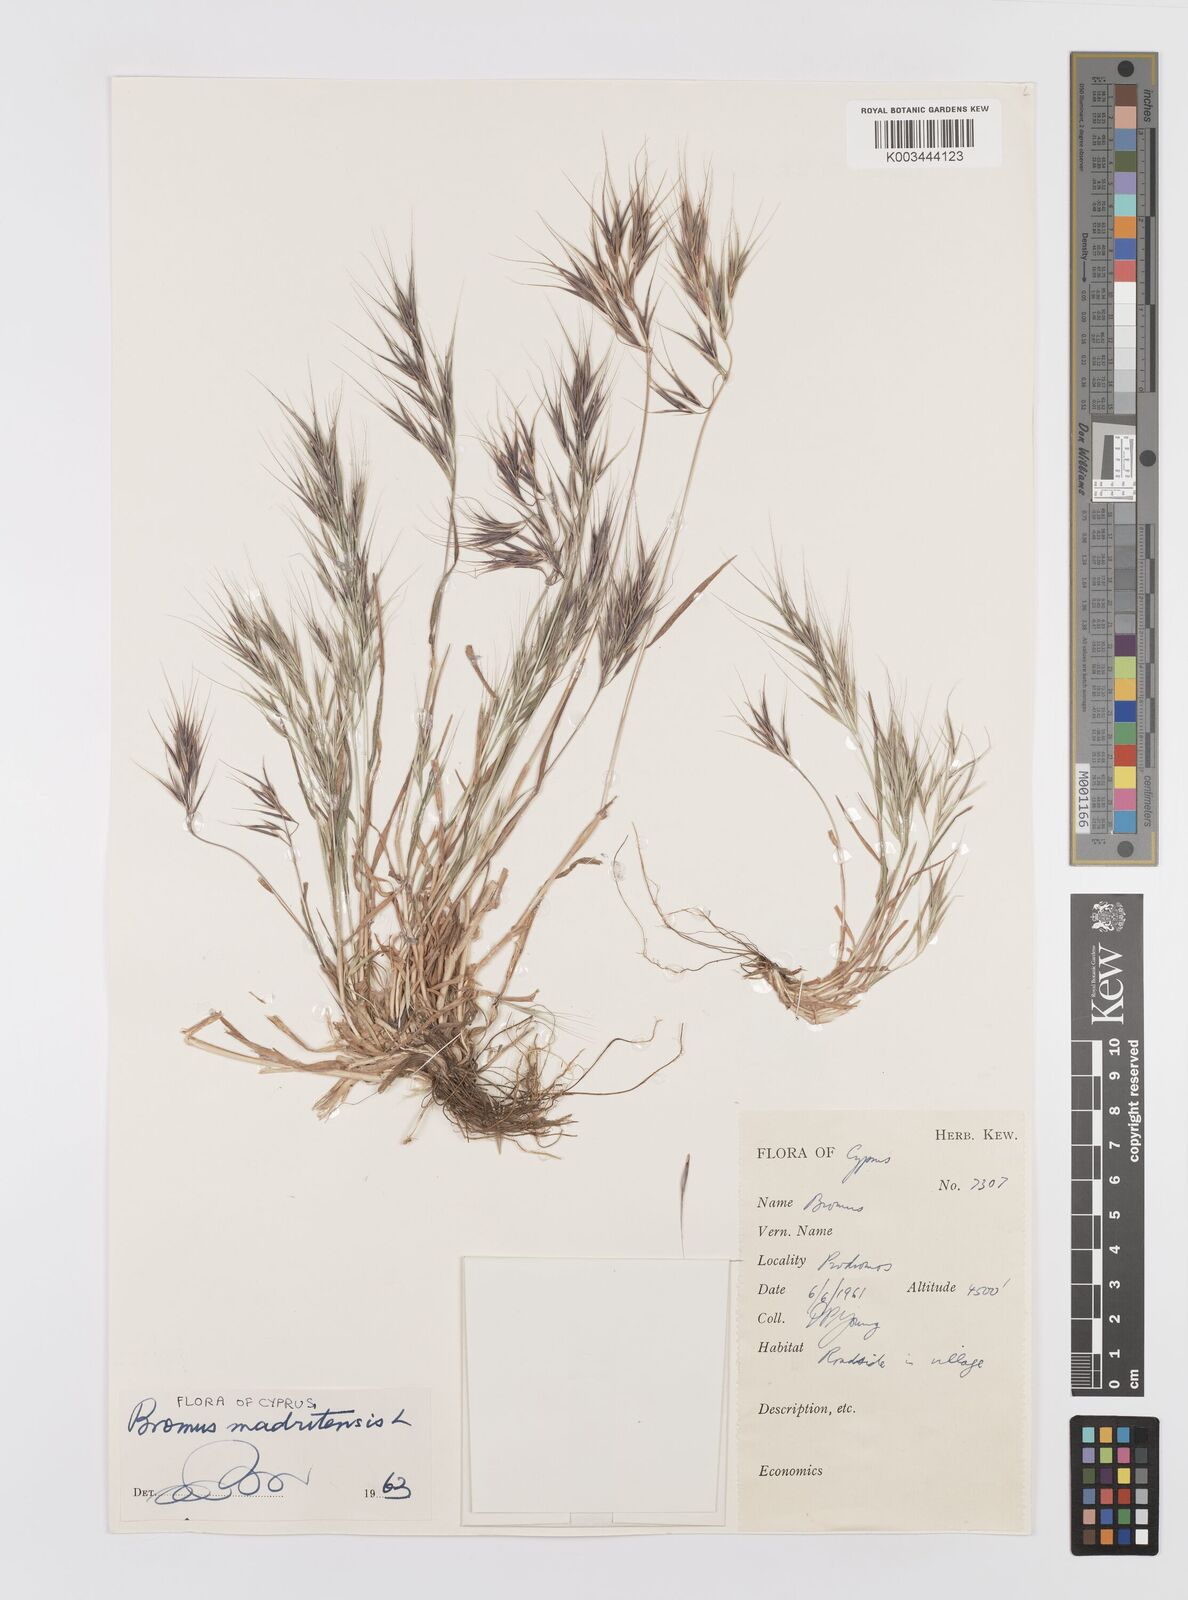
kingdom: Plantae
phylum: Tracheophyta
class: Liliopsida
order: Poales
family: Poaceae
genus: Bromus
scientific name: Bromus madritensis
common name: Compact brome
